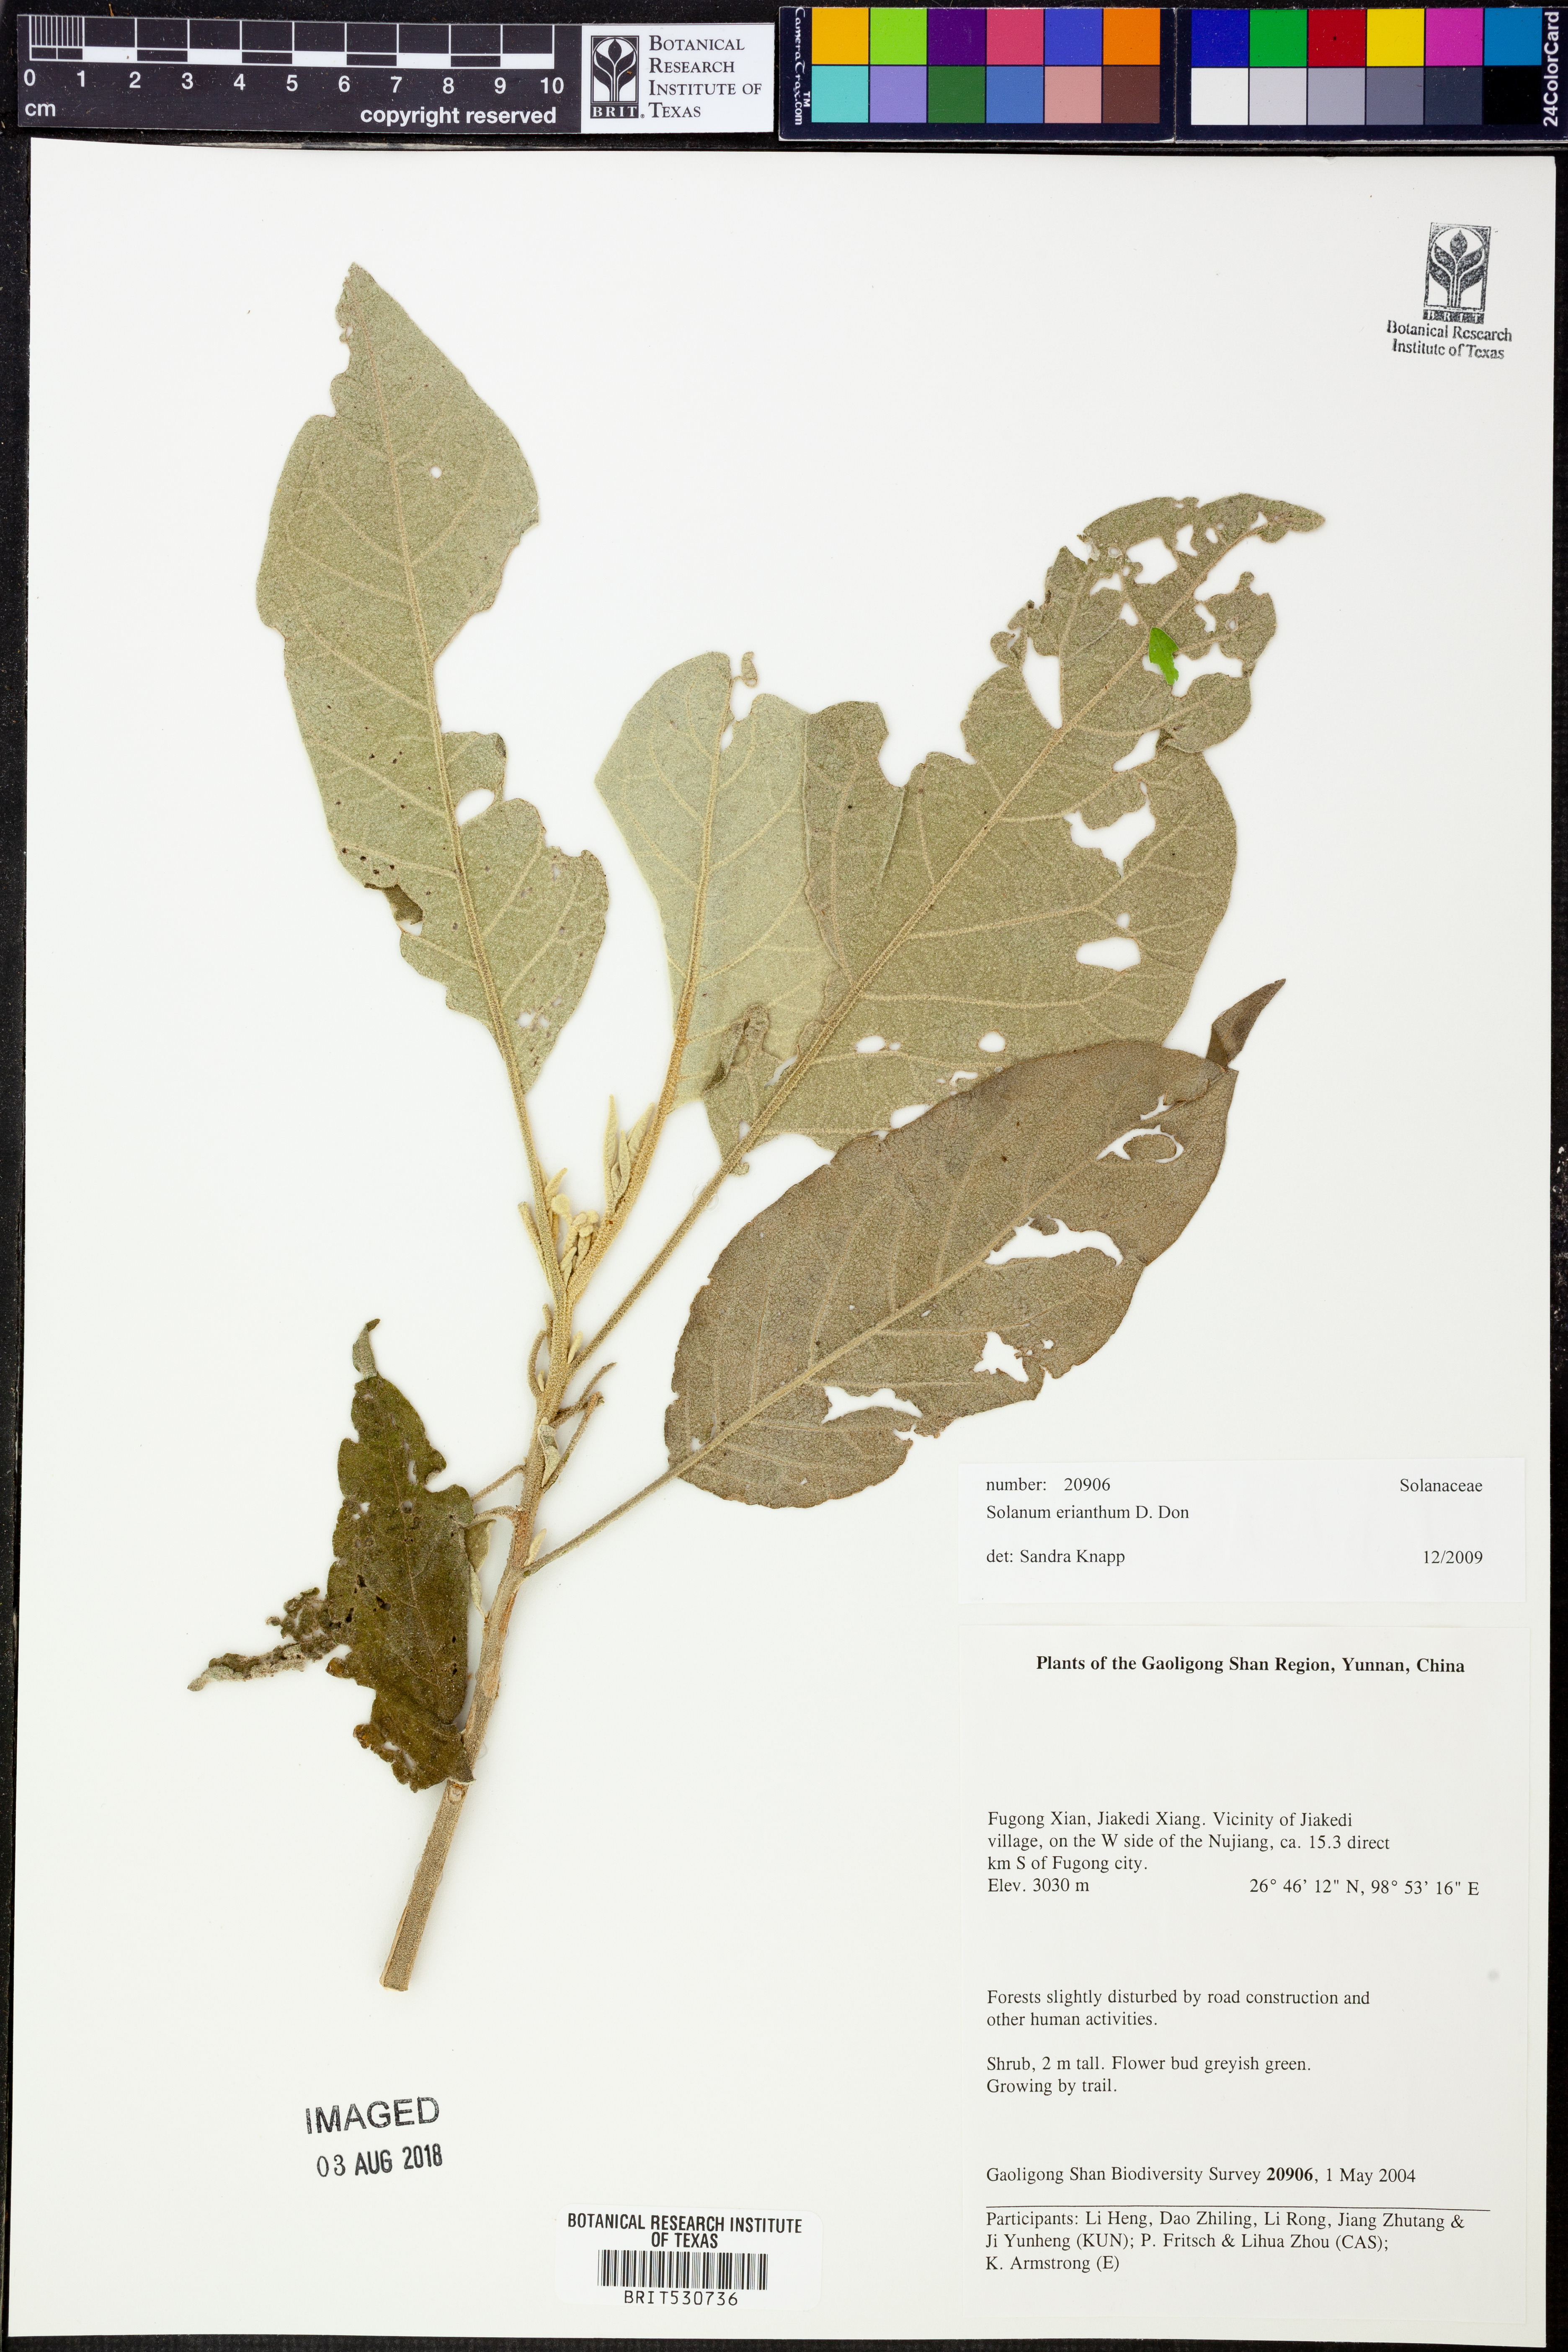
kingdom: Plantae
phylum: Tracheophyta
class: Magnoliopsida
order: Solanales
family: Solanaceae
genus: Solanum
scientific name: Solanum erianthum
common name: Tobacco-tree
